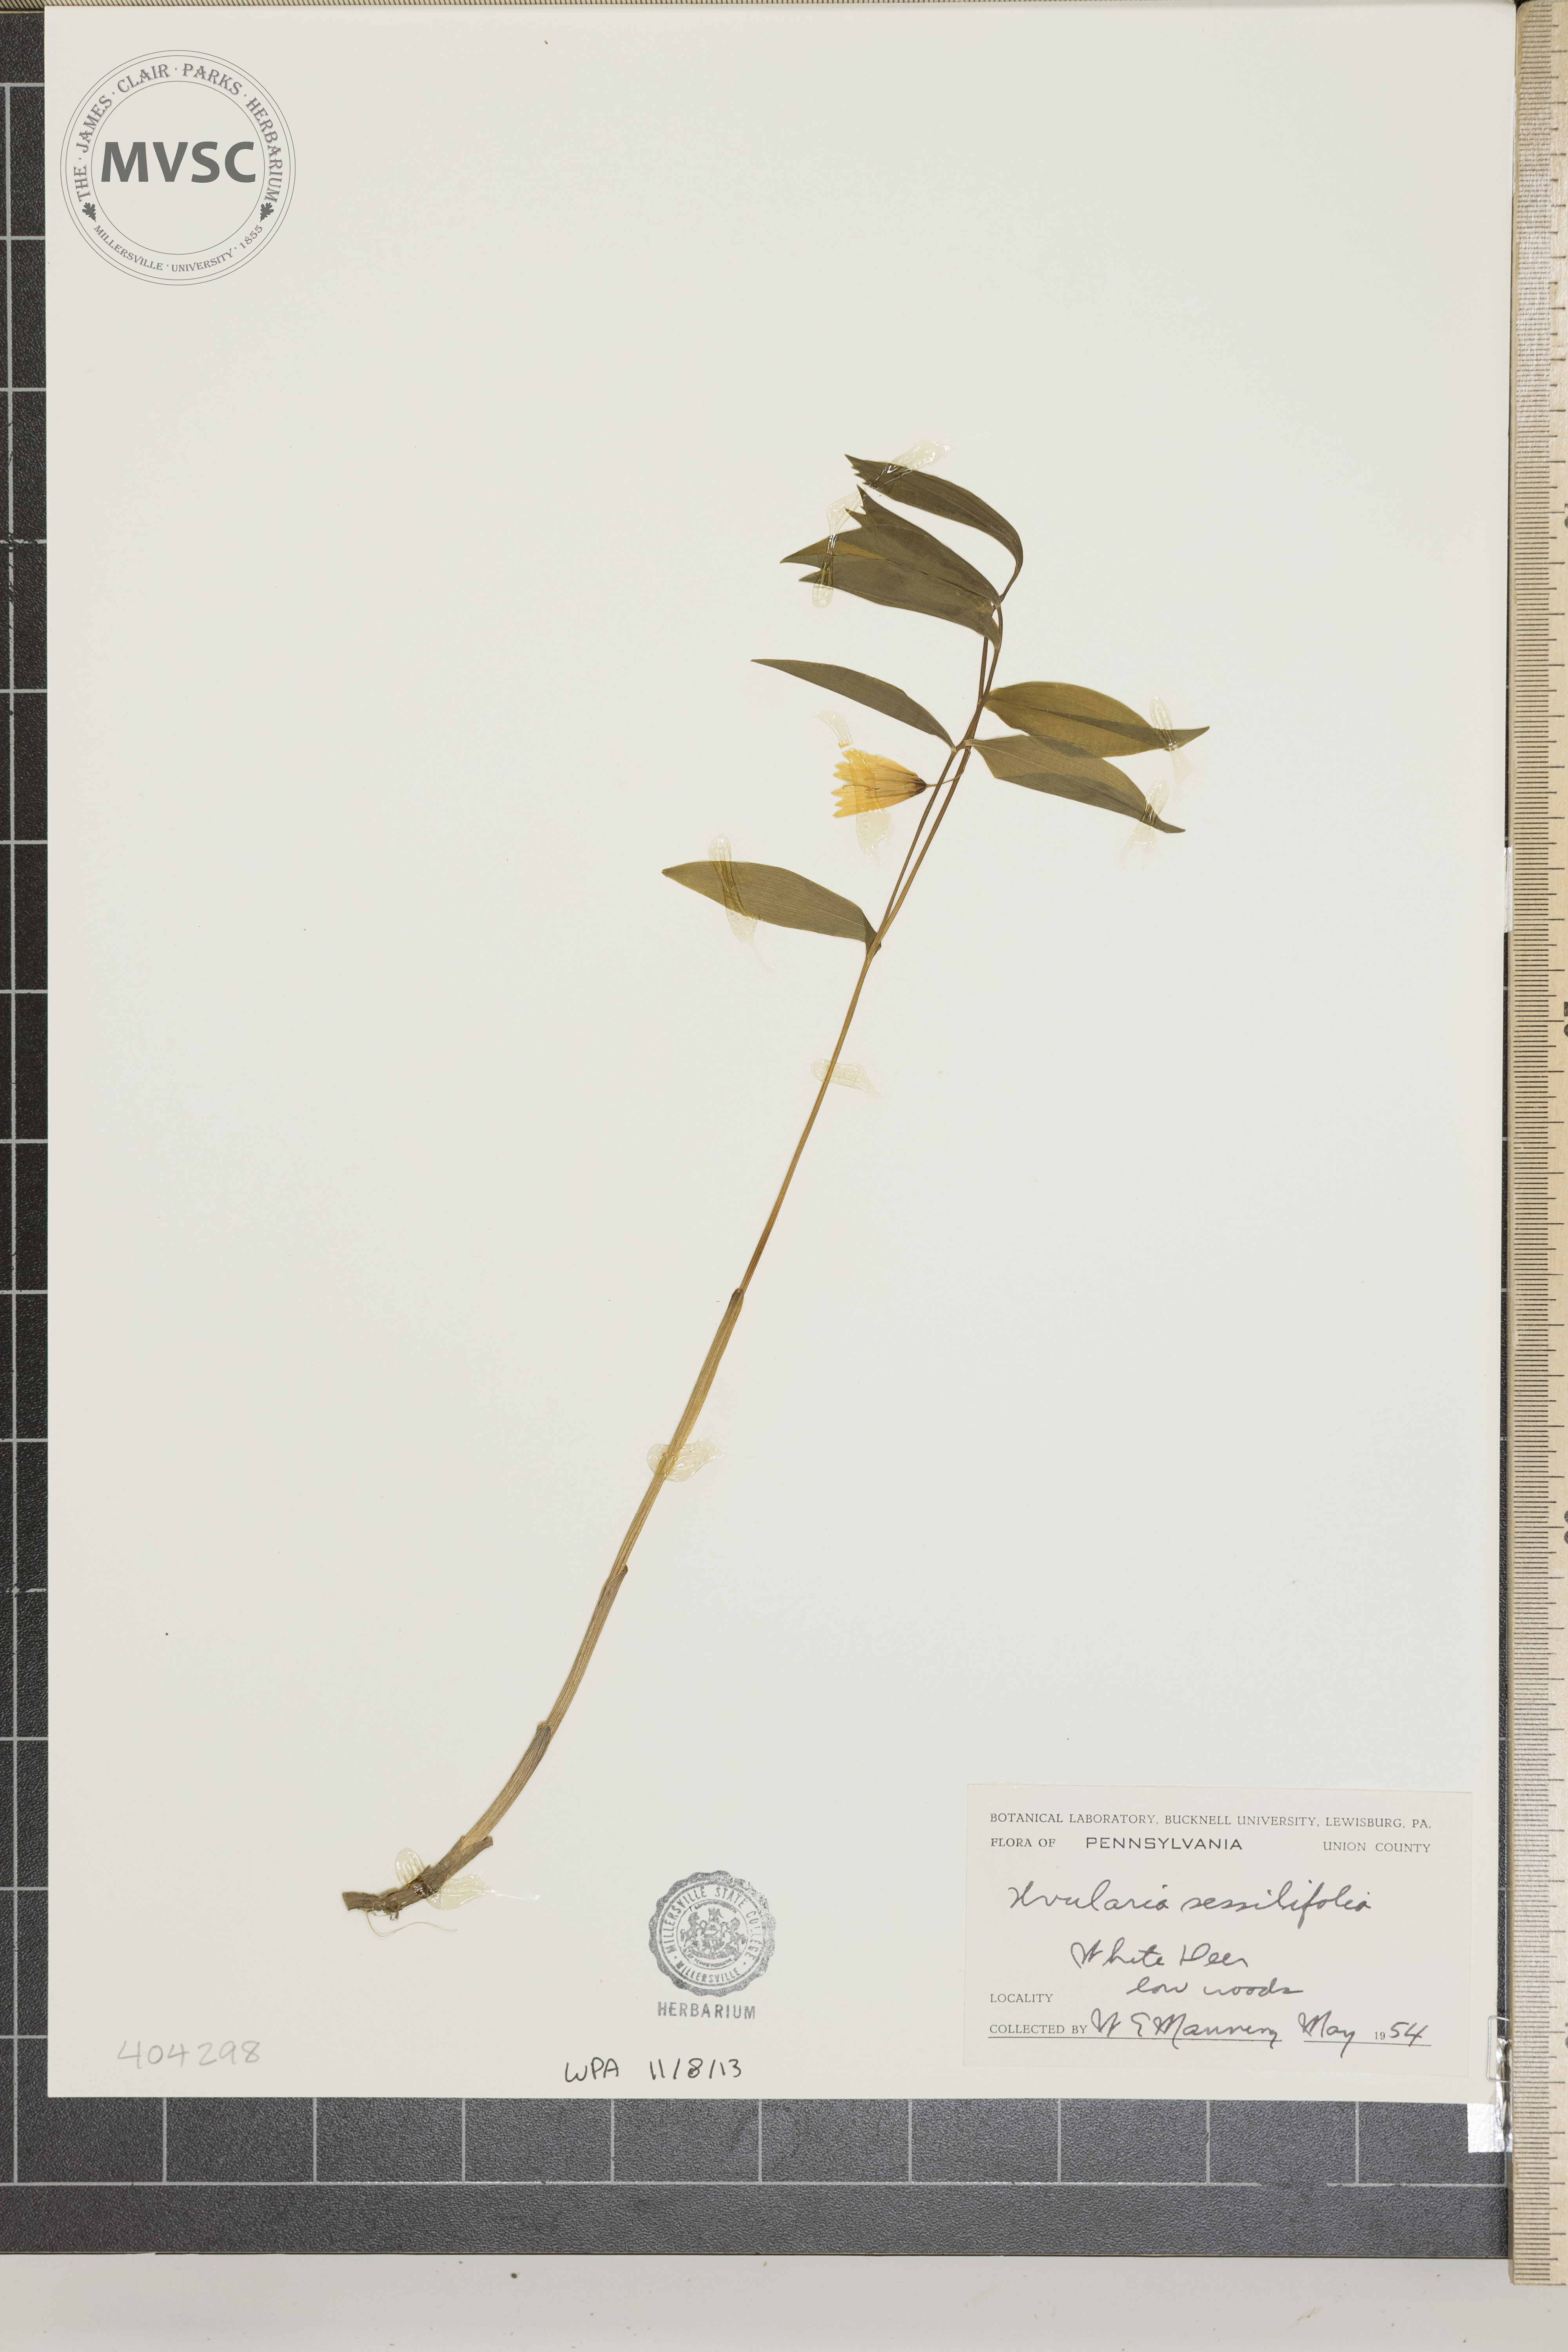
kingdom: Plantae
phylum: Tracheophyta
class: Liliopsida
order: Liliales
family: Colchicaceae
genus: Uvularia
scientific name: Uvularia sessilifolia
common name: Straw-lily
